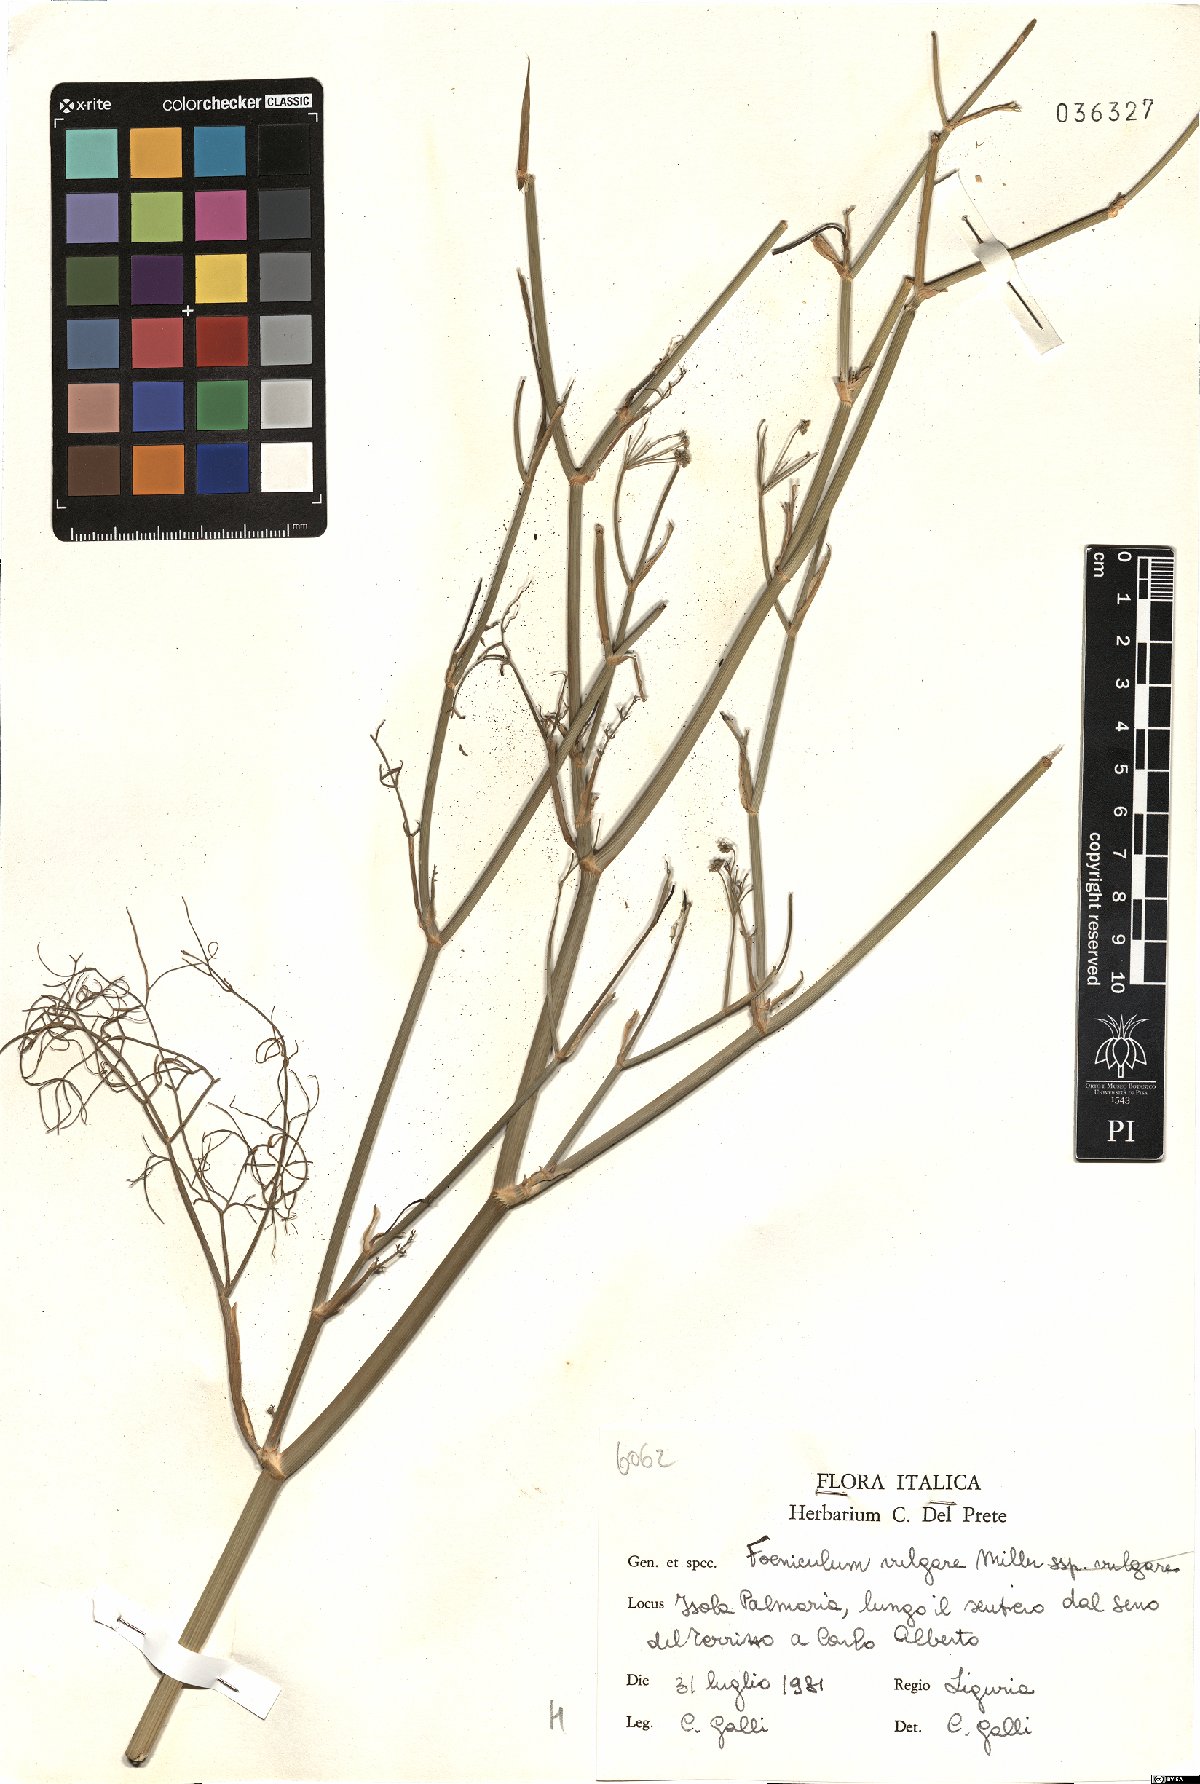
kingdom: Plantae
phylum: Tracheophyta
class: Magnoliopsida
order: Apiales
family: Apiaceae
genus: Foeniculum
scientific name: Foeniculum vulgare
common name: Fennel
